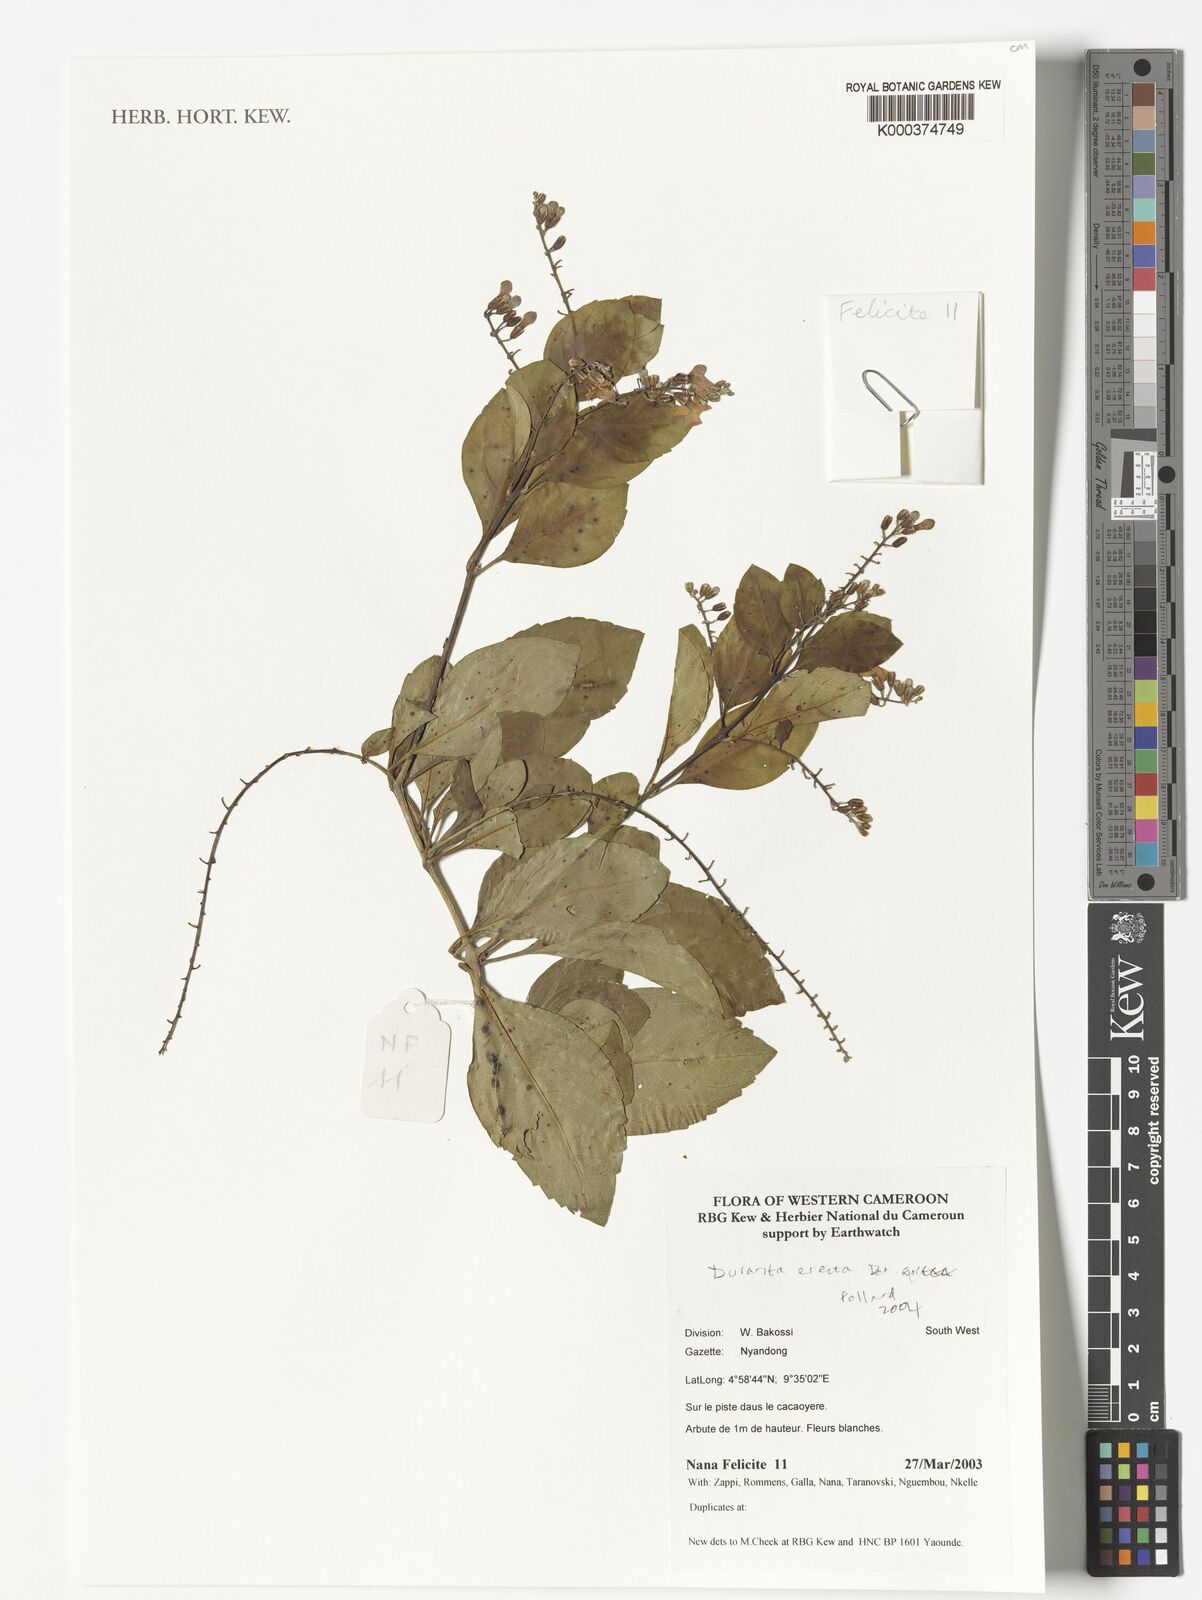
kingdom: Plantae
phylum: Tracheophyta
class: Magnoliopsida
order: Lamiales
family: Verbenaceae
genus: Duranta
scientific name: Duranta erecta
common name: Golden dewdrops
